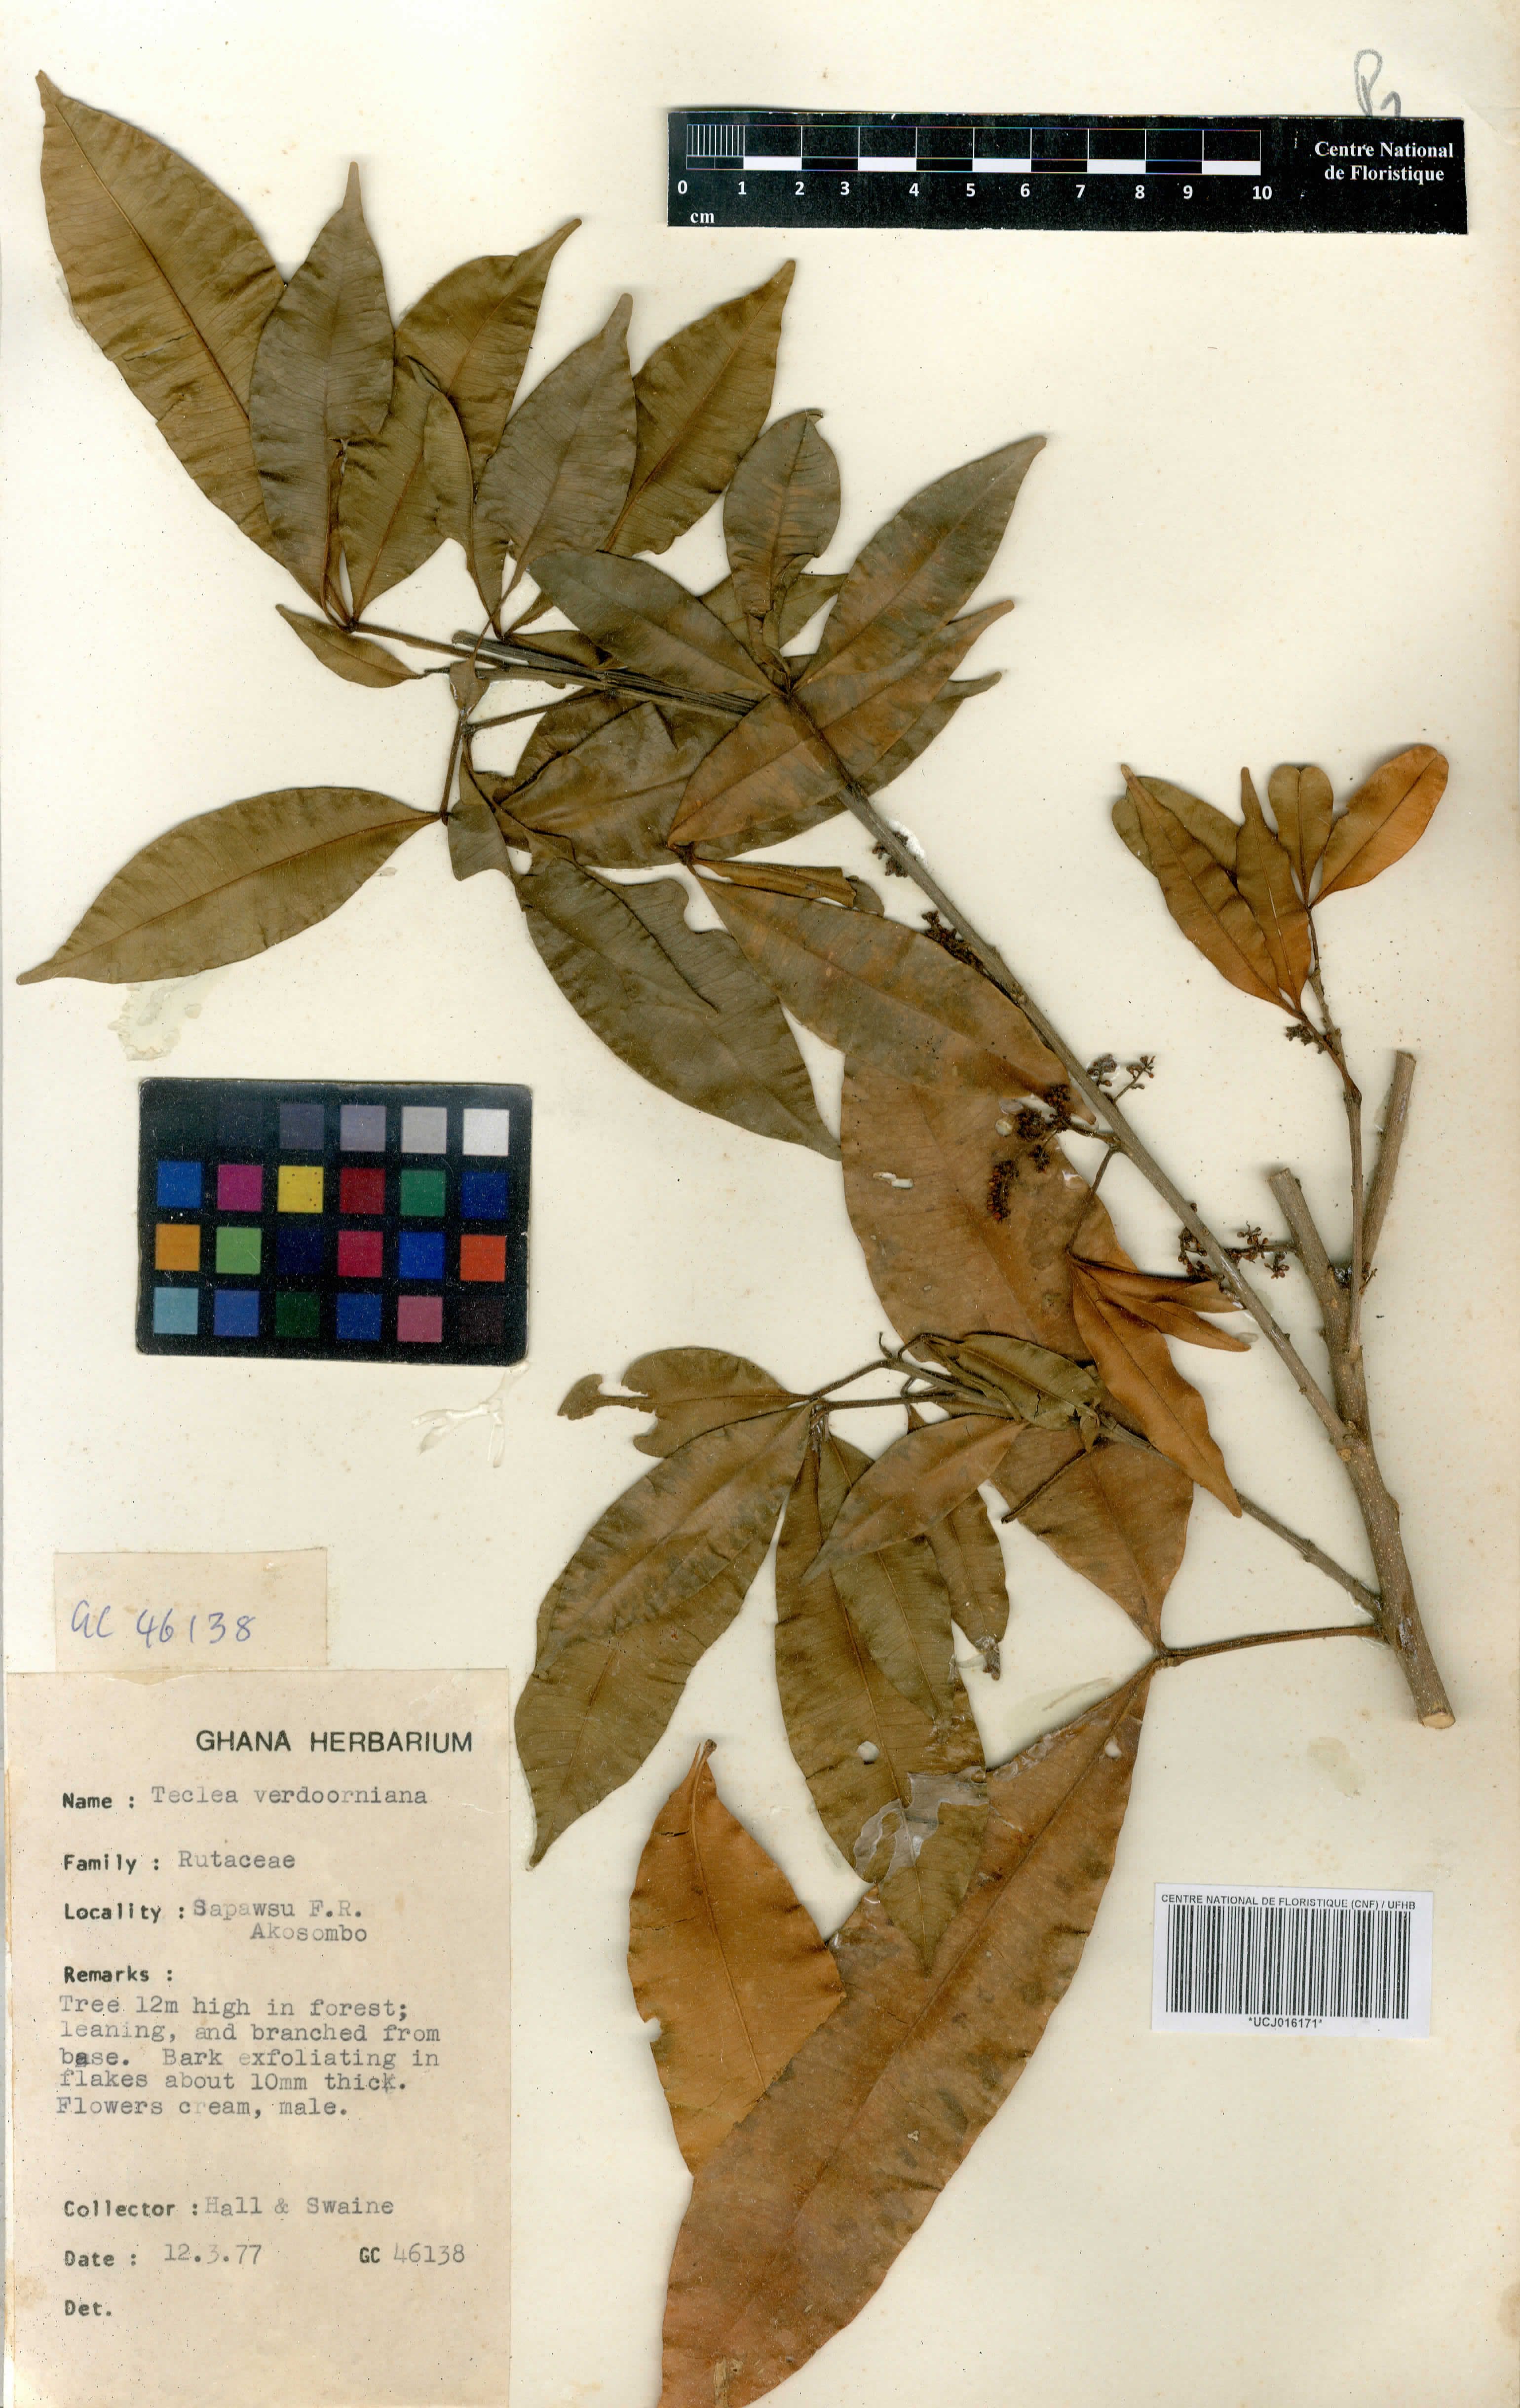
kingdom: Plantae
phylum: Tracheophyta
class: Magnoliopsida
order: Sapindales
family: Rutaceae
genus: Vepris
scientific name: Vepris verdoorniana
